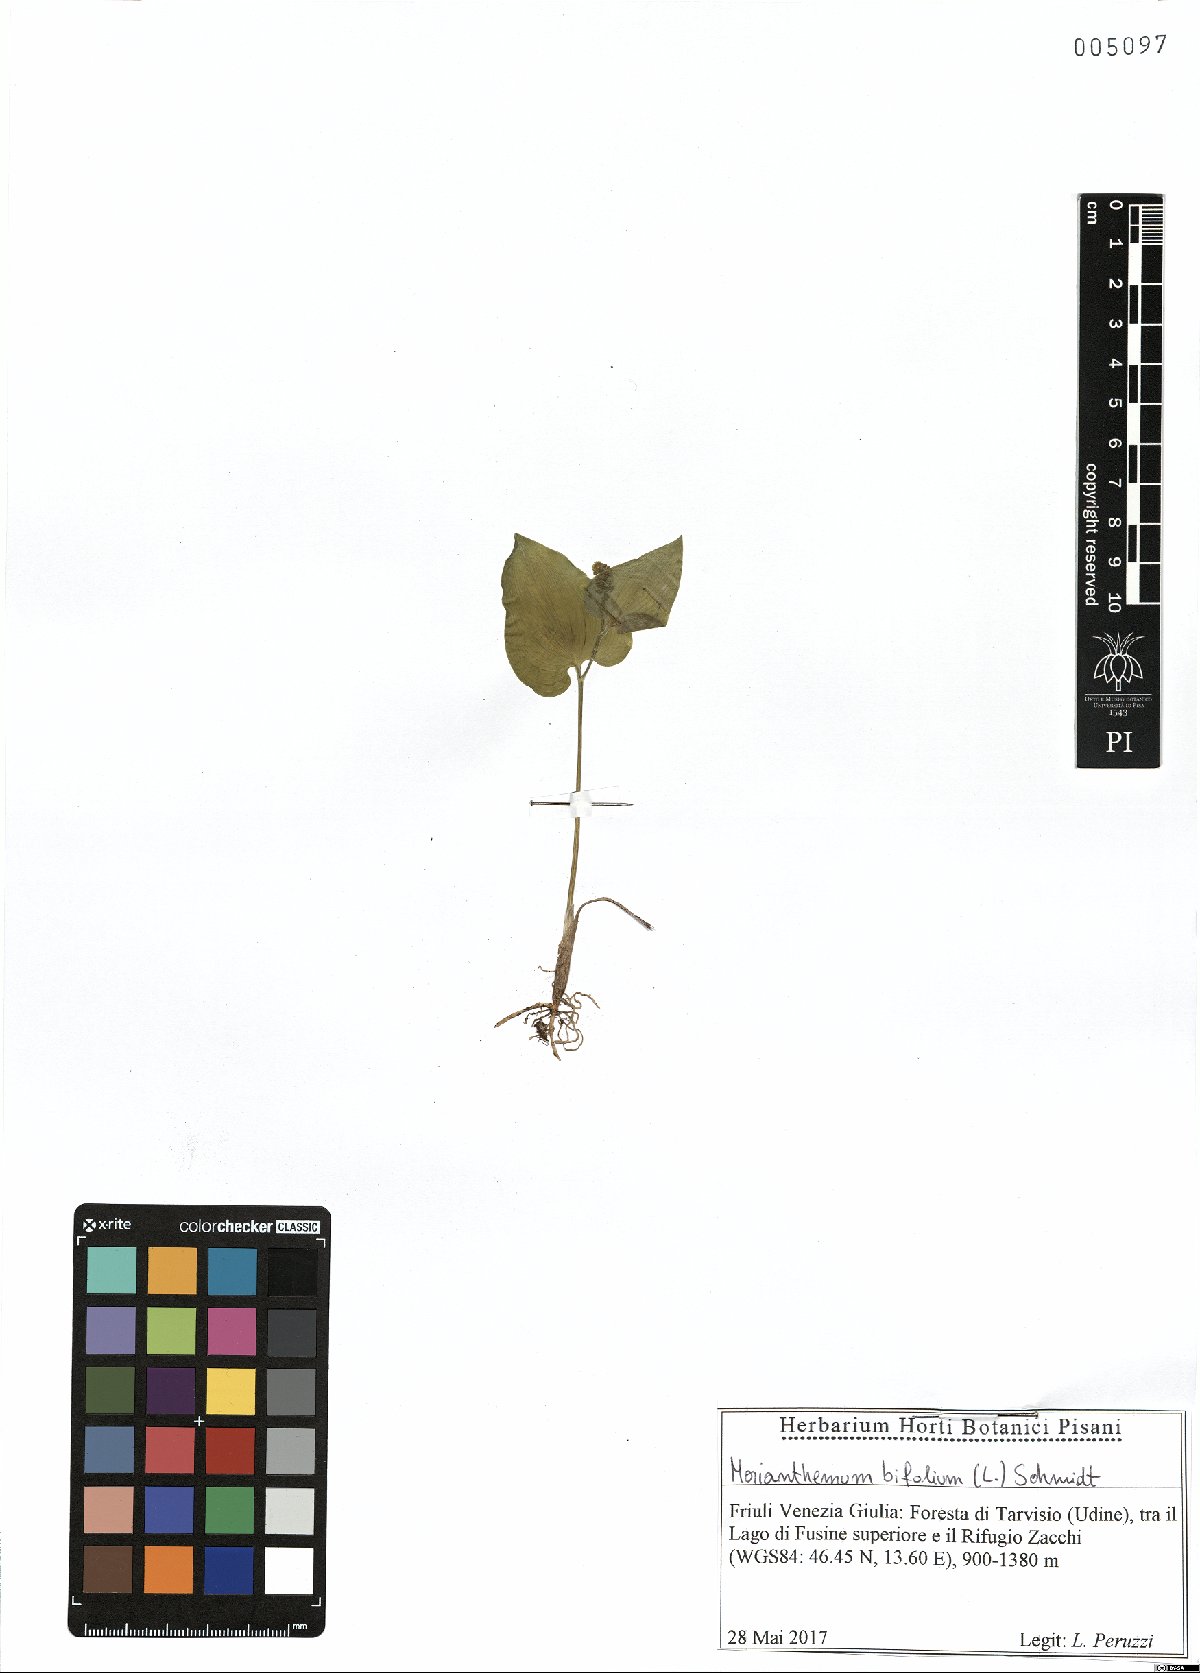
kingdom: Plantae
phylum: Tracheophyta
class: Liliopsida
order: Asparagales
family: Asparagaceae
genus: Maianthemum
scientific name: Maianthemum bifolium
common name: May lily
